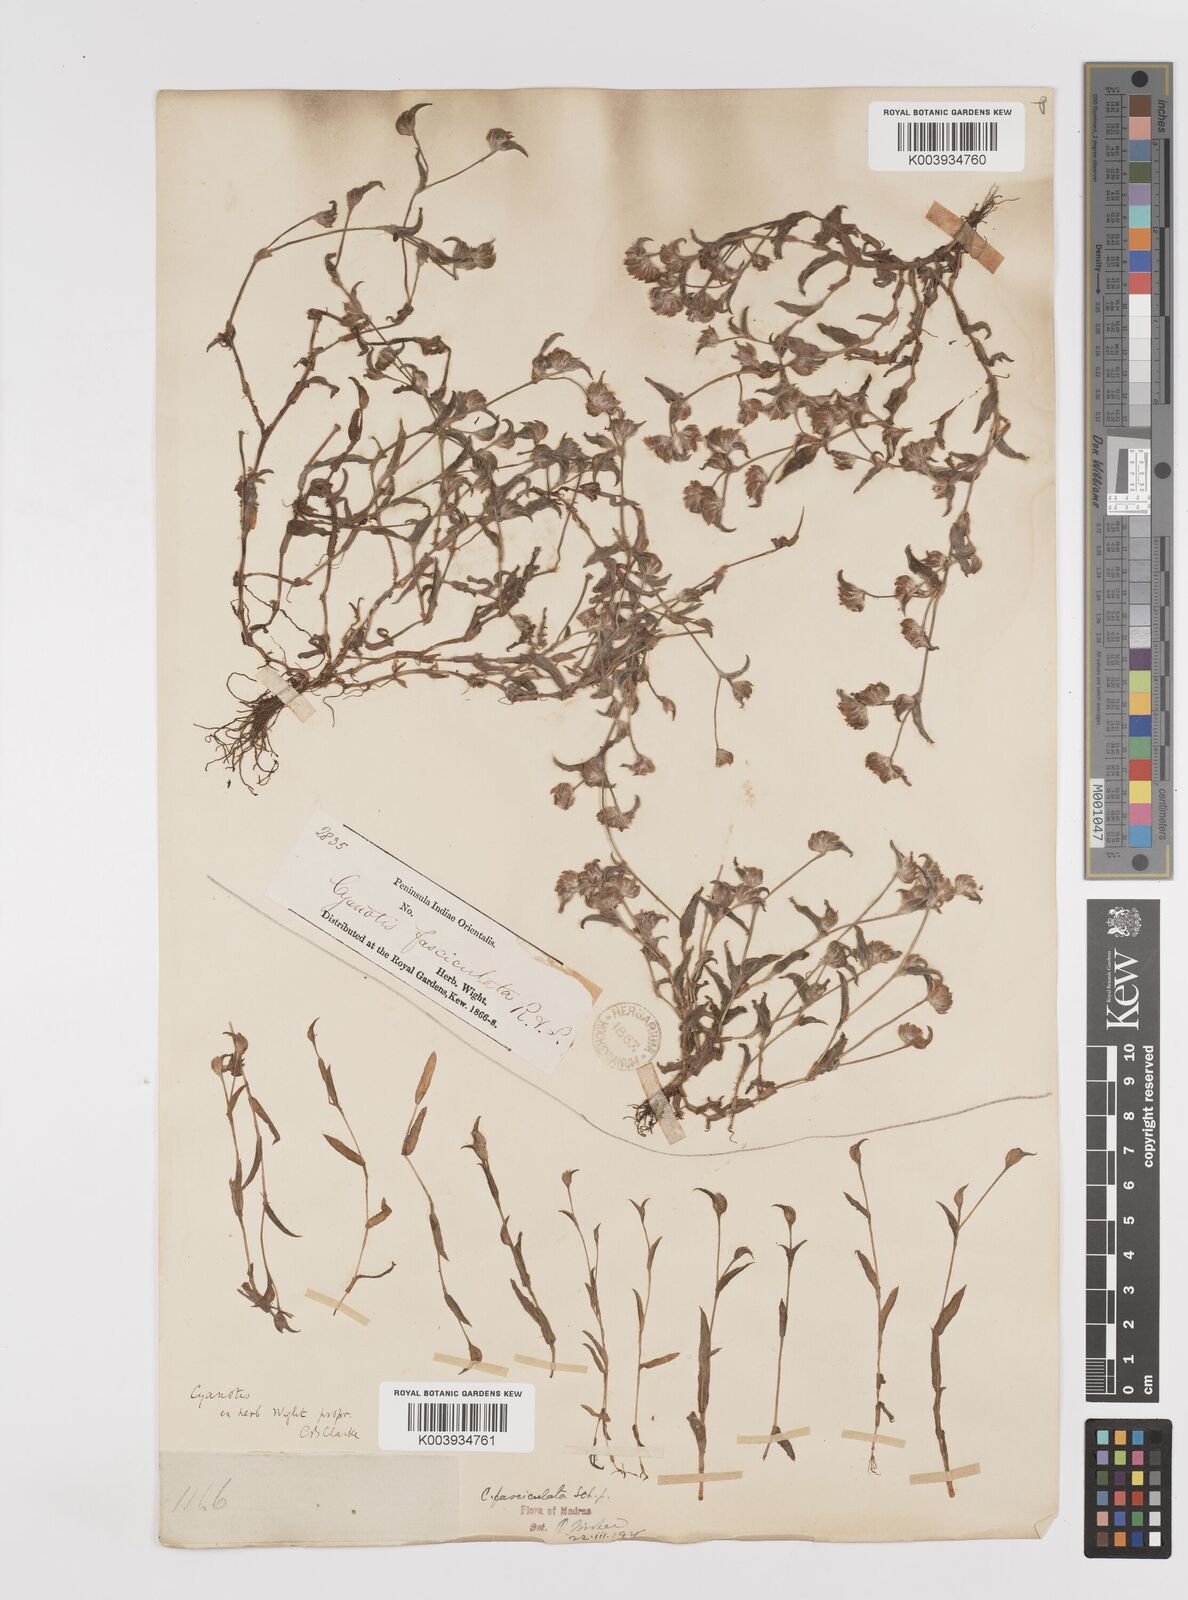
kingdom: Plantae
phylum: Tracheophyta
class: Liliopsida
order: Commelinales
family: Commelinaceae
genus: Cyanotis
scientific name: Cyanotis fasciculata
